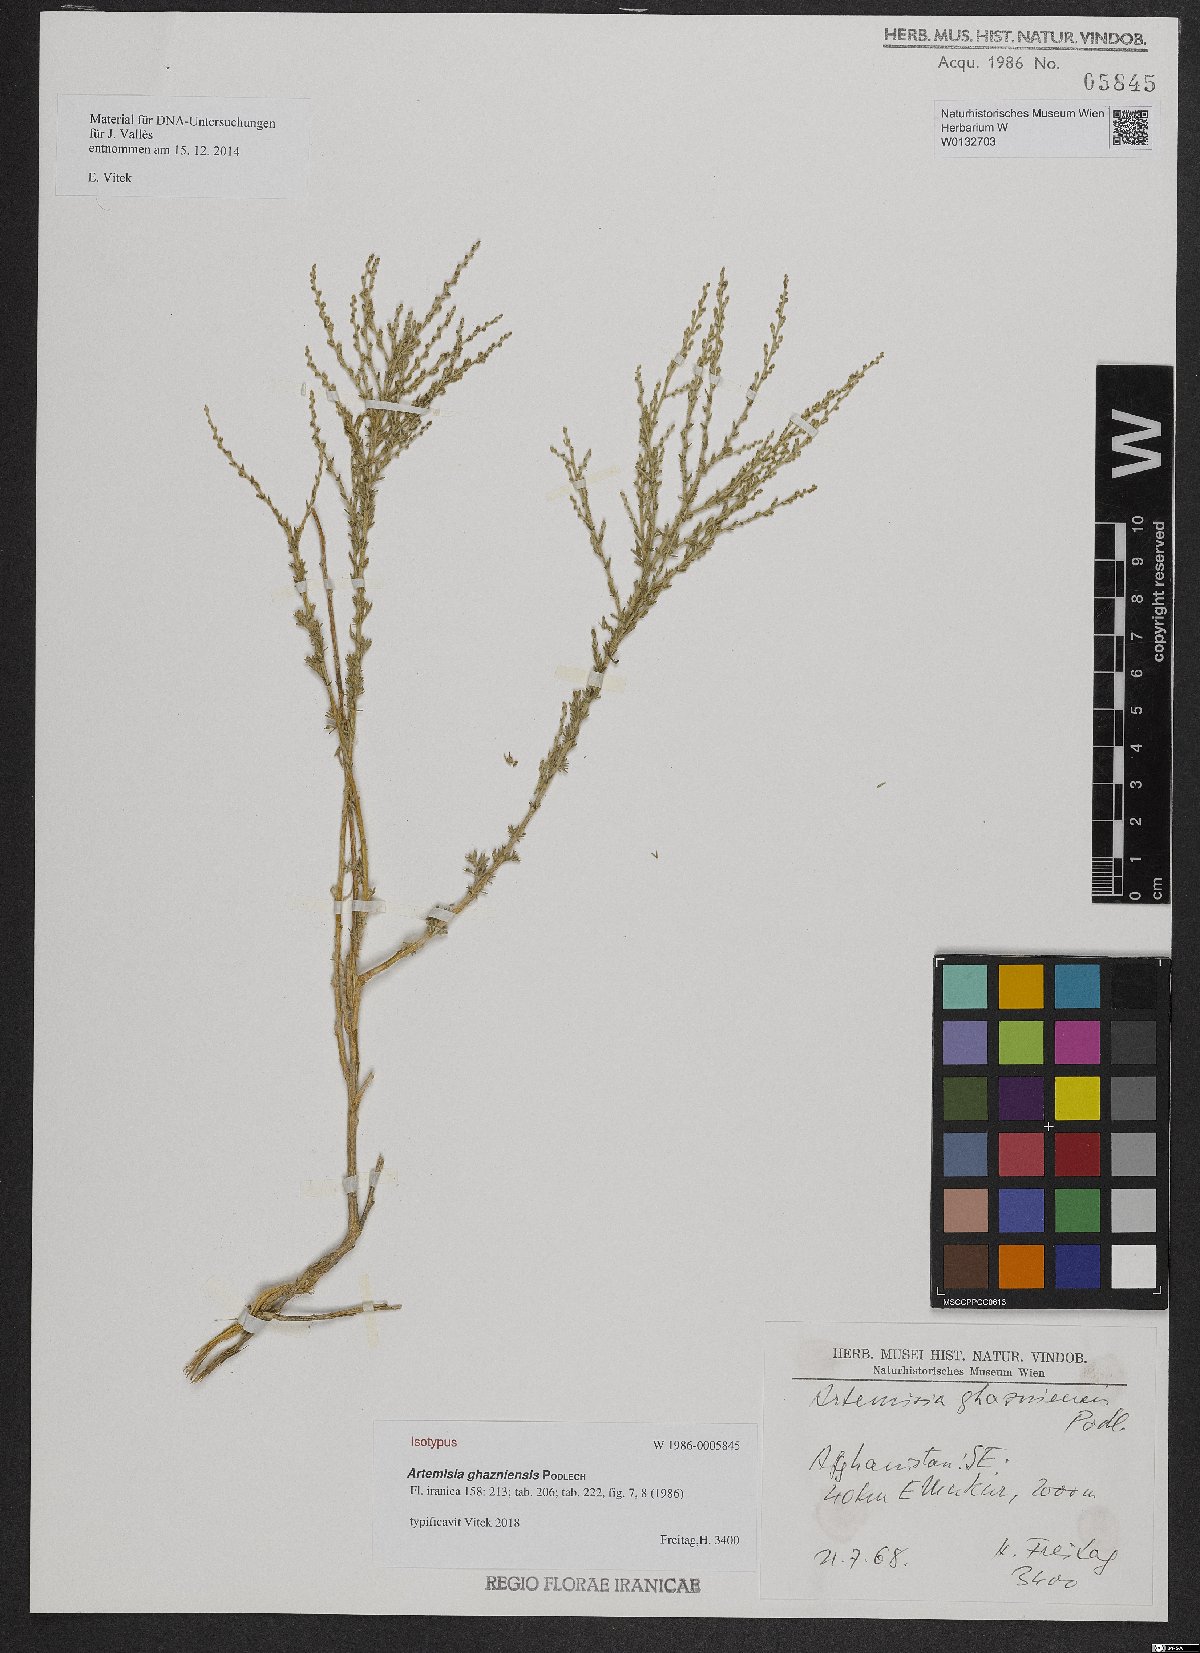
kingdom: Plantae
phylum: Tracheophyta
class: Magnoliopsida
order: Asterales
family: Asteraceae
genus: Artemisia
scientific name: Artemisia ghazniensis
